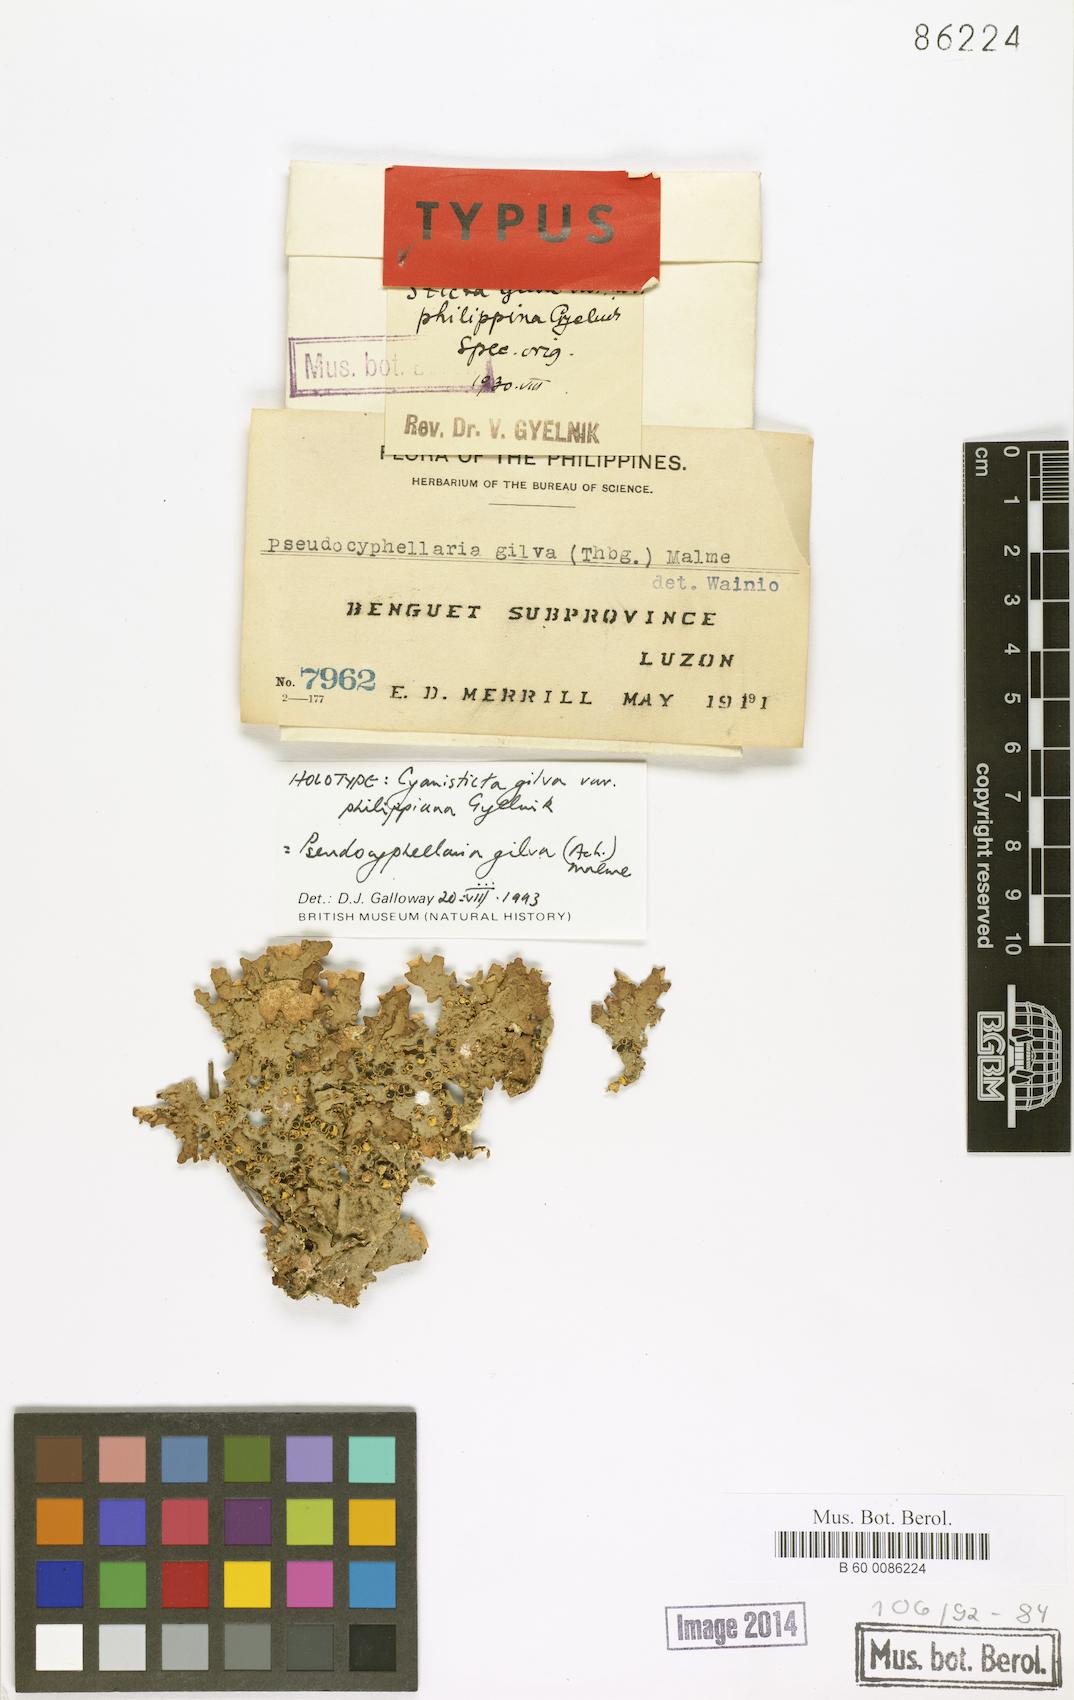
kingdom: Fungi
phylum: Ascomycota
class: Lecanoromycetes
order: Peltigerales
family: Lobariaceae
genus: Pseudocyphellaria
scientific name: Pseudocyphellaria gilva
